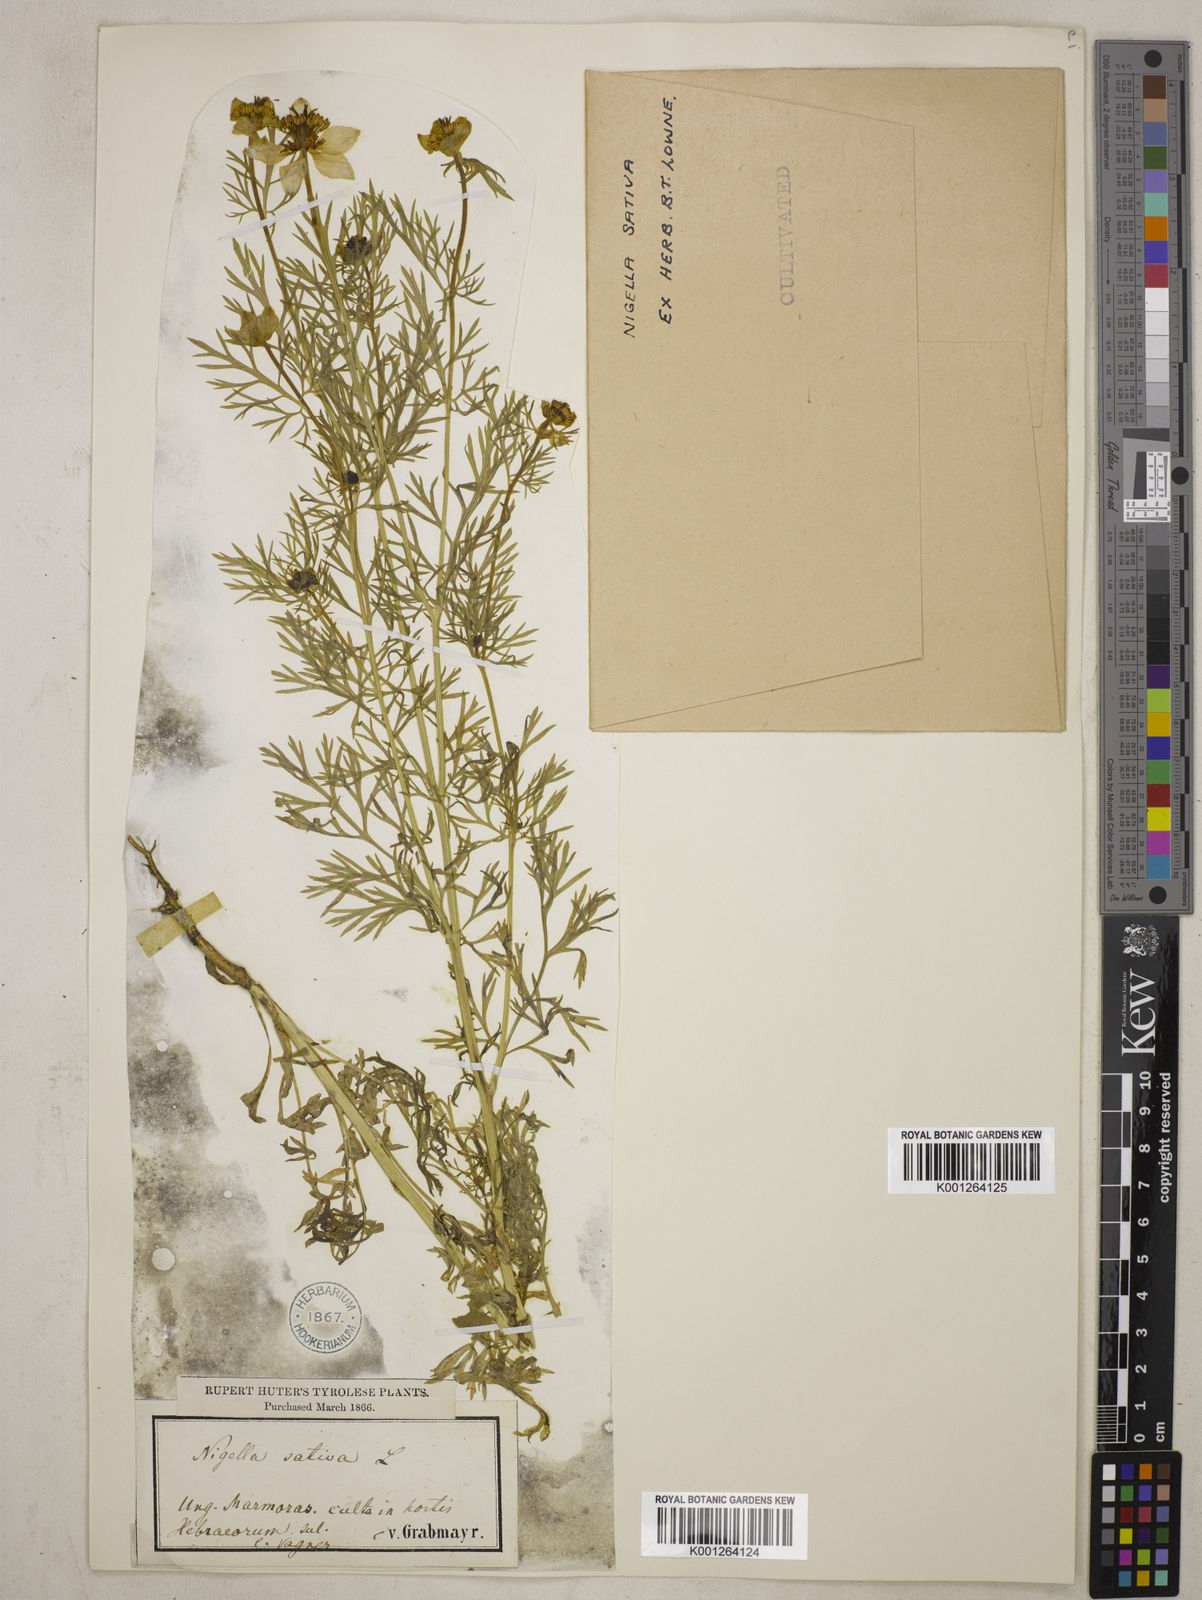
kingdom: Plantae
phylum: Tracheophyta
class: Magnoliopsida
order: Ranunculales
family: Ranunculaceae
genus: Nigella
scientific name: Nigella sativa
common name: Black-cumin
